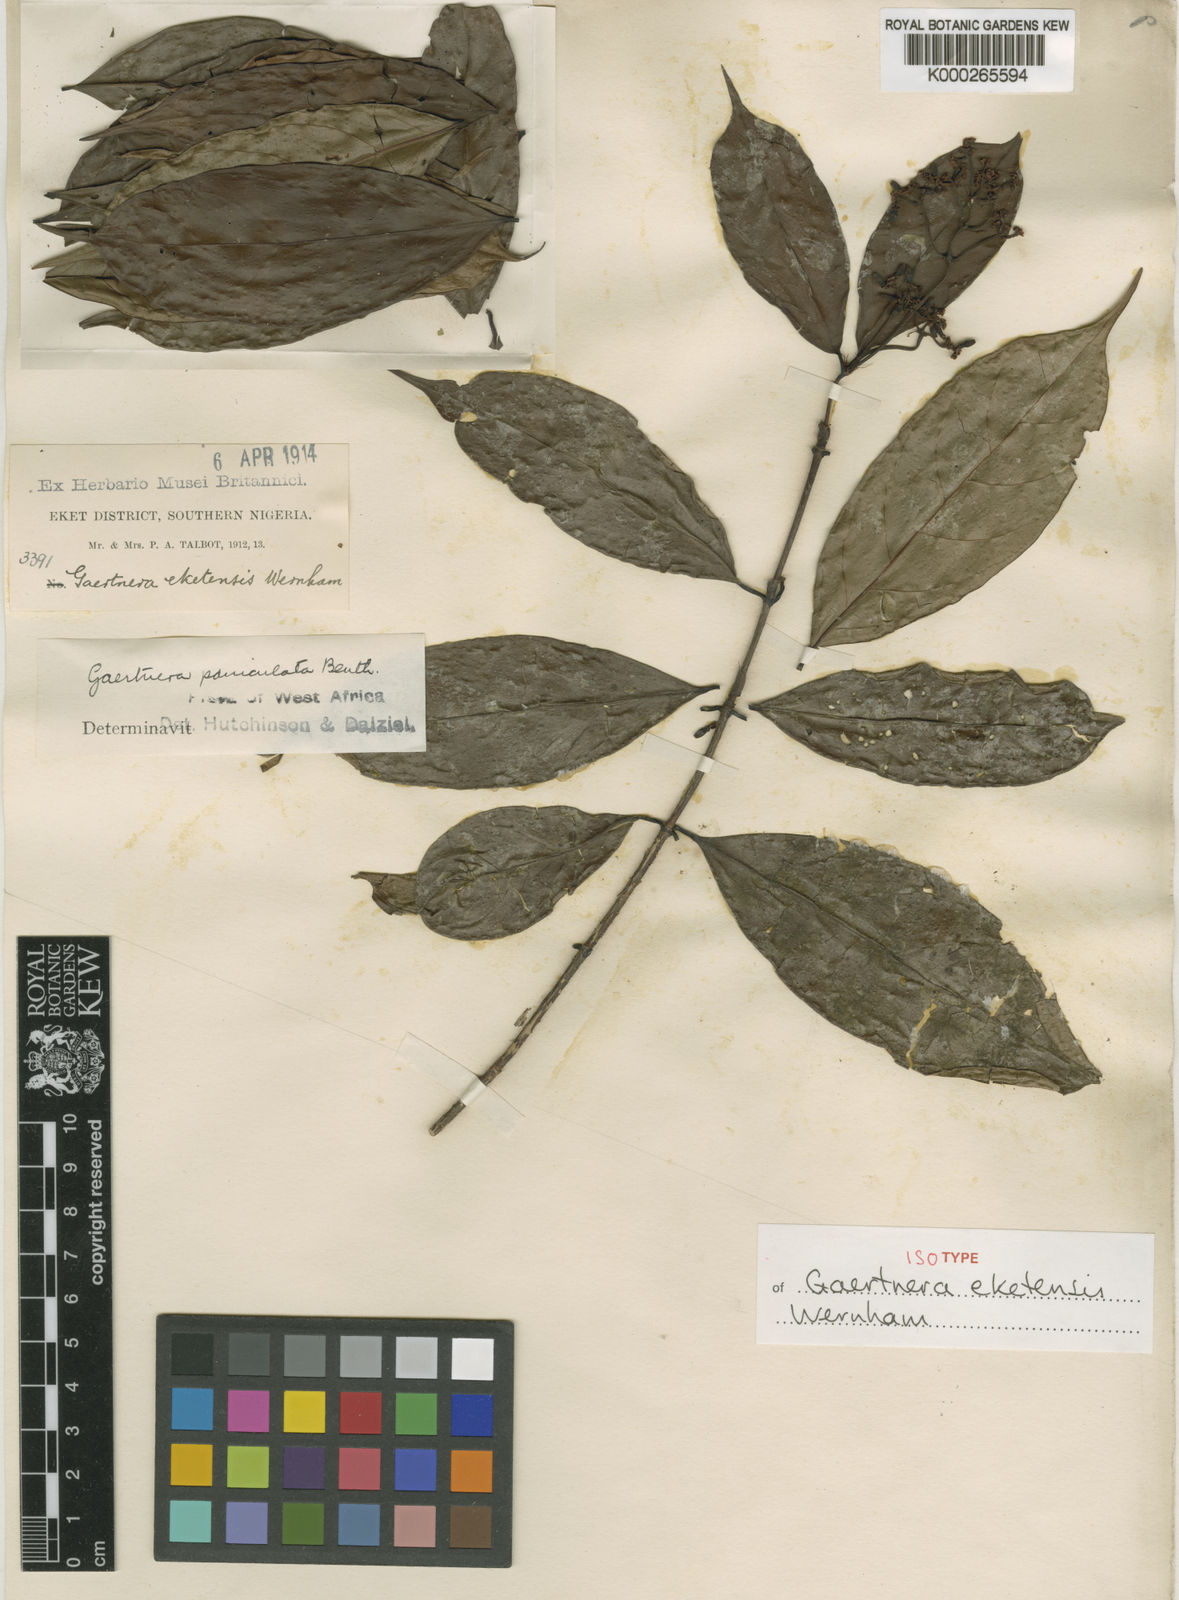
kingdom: Plantae
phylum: Tracheophyta
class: Magnoliopsida
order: Gentianales
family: Rubiaceae
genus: Gaertnera
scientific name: Gaertnera eketensis
